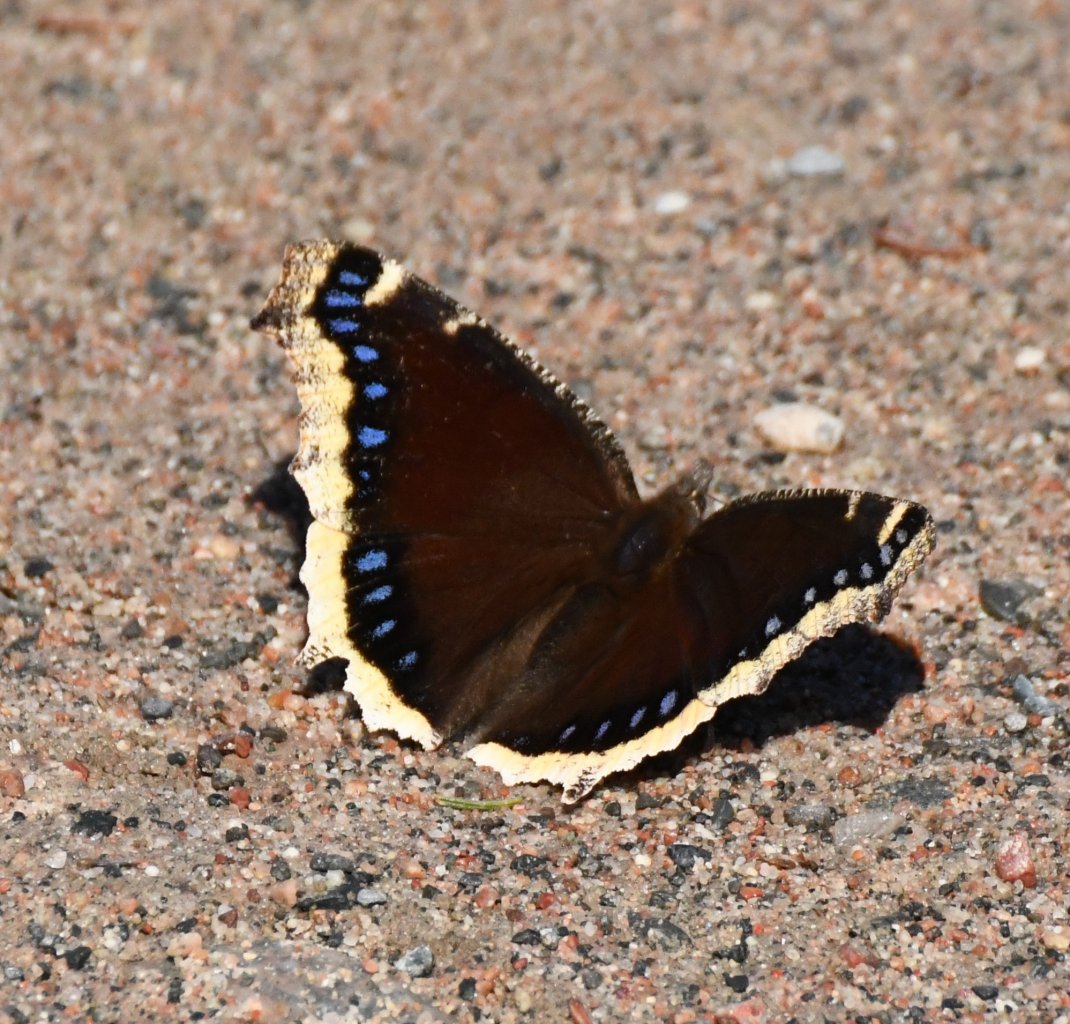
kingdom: Animalia
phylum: Arthropoda
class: Insecta
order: Lepidoptera
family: Nymphalidae
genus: Nymphalis
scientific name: Nymphalis antiopa
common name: Mourning Cloak
